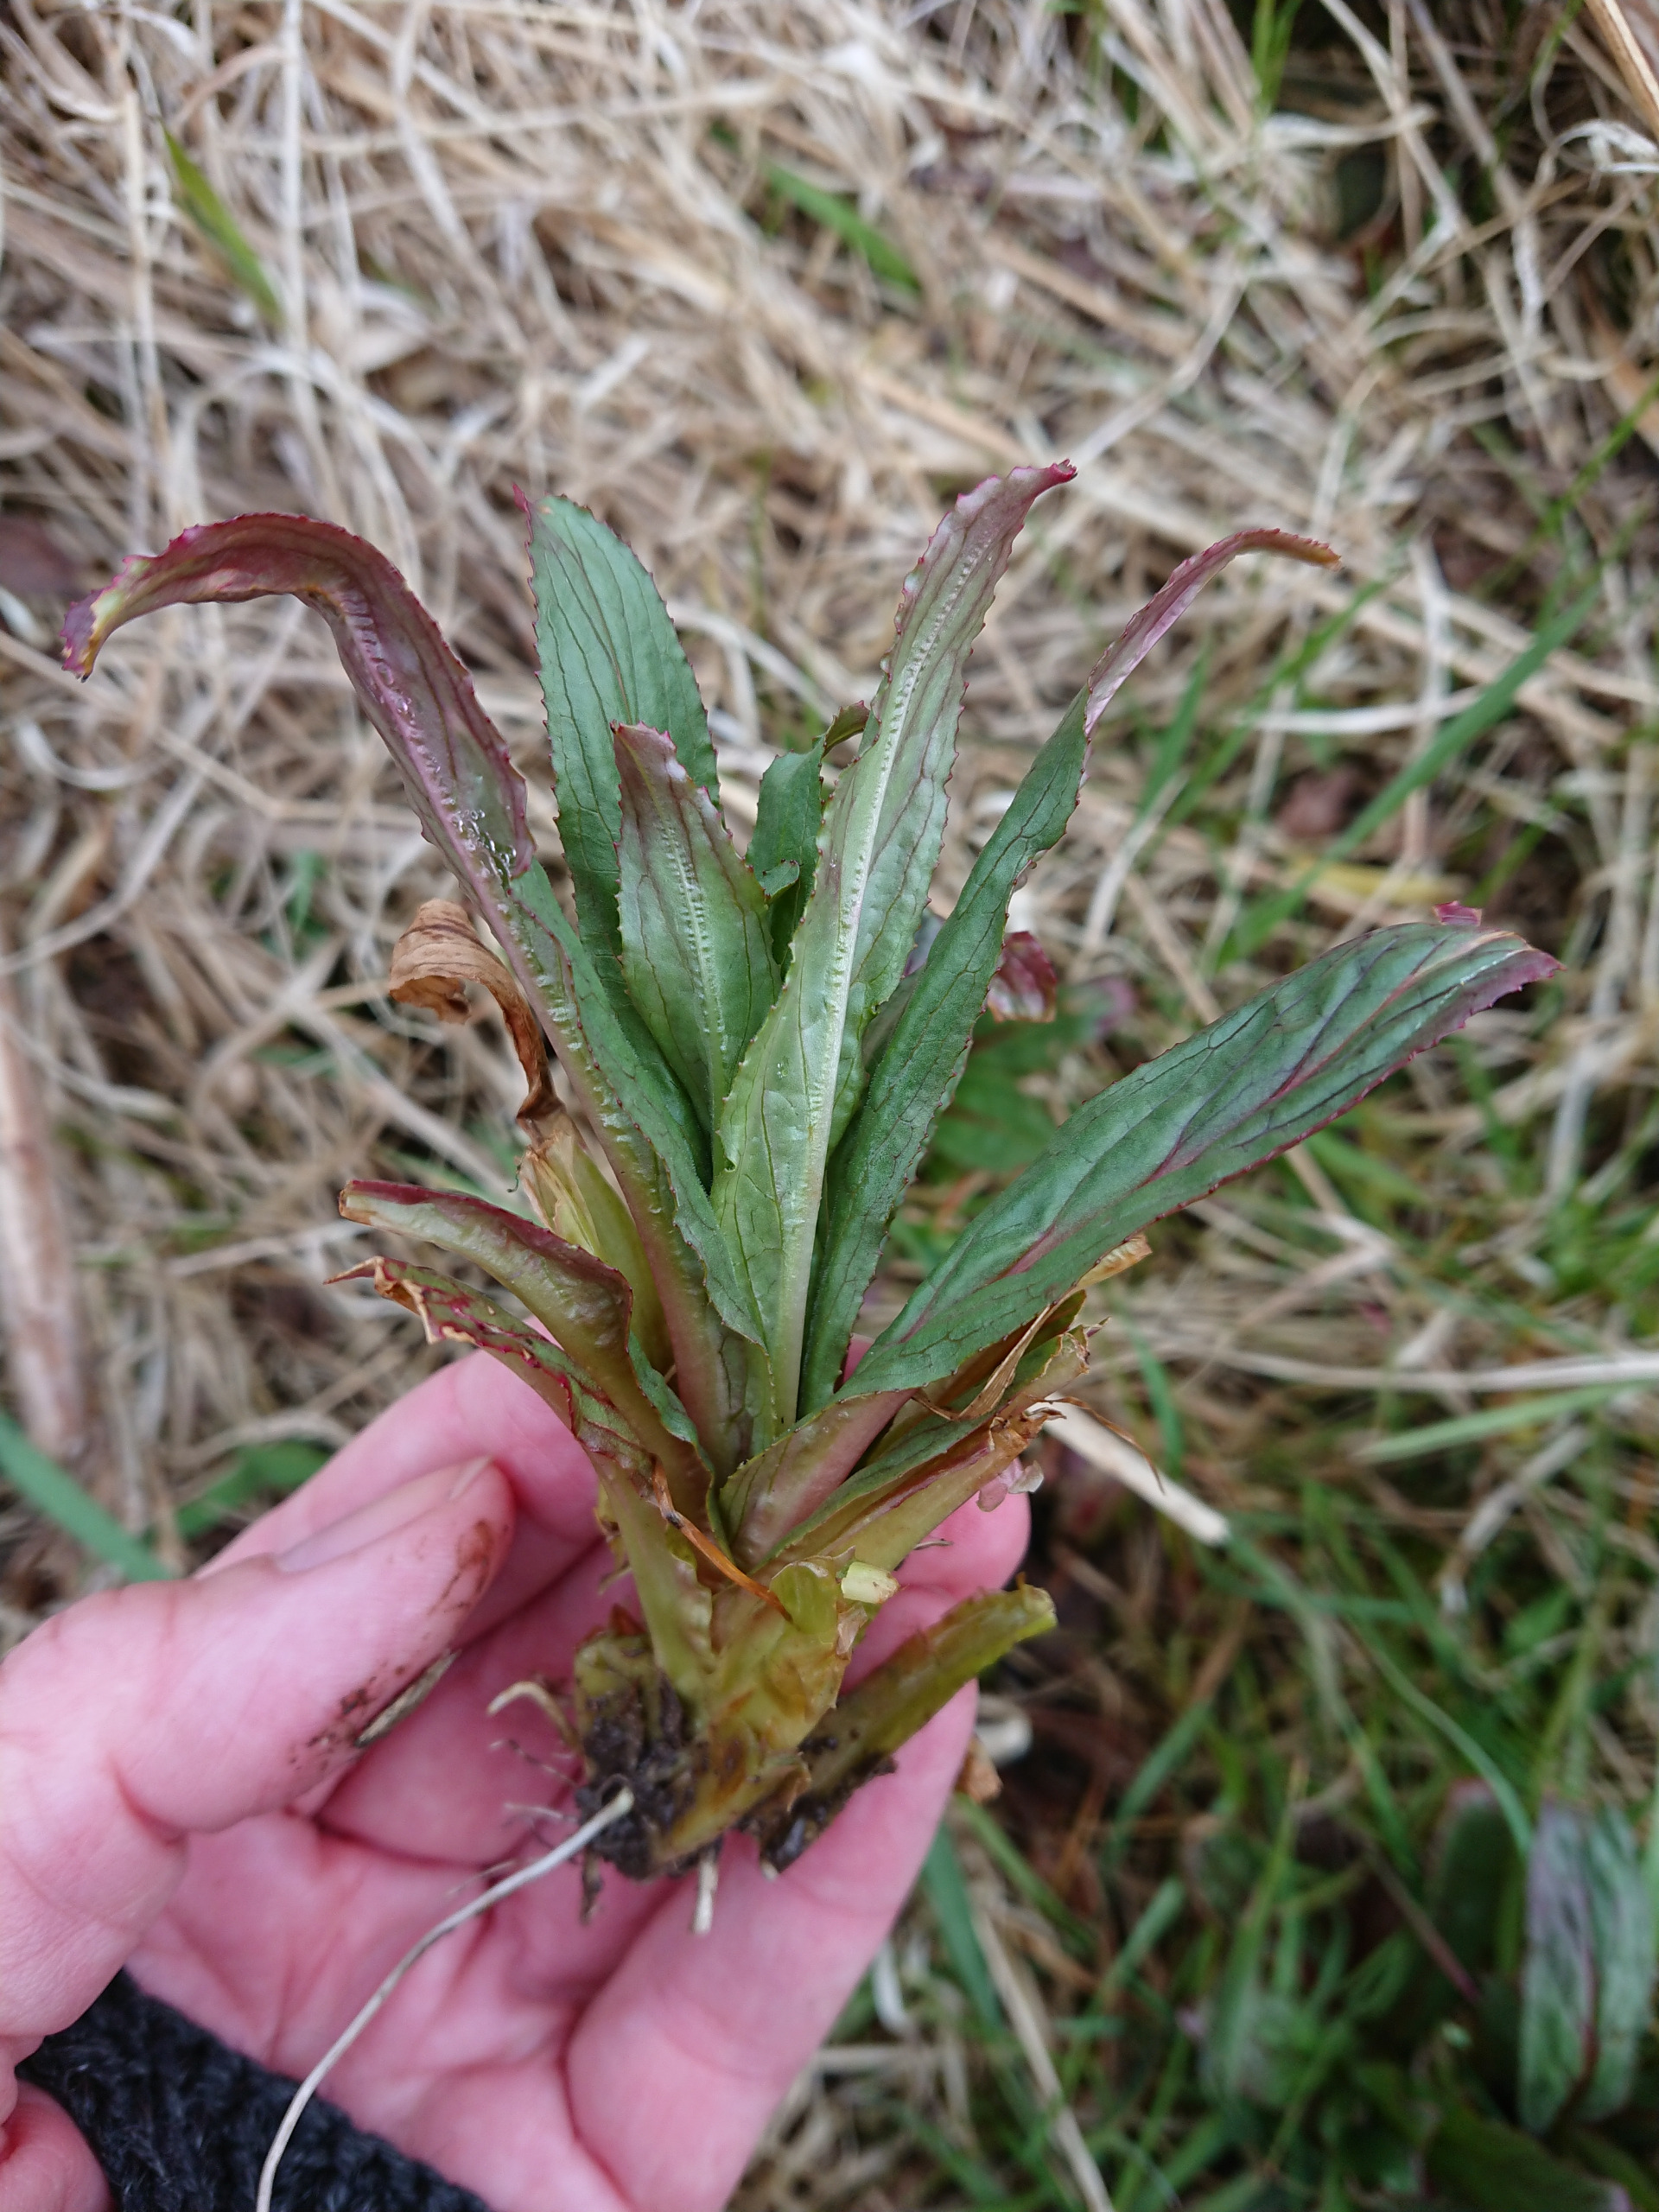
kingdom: Plantae
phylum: Tracheophyta
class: Magnoliopsida
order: Myrtales
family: Onagraceae
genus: Epilobium
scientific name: Epilobium hirsutum
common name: Lådden dueurt
